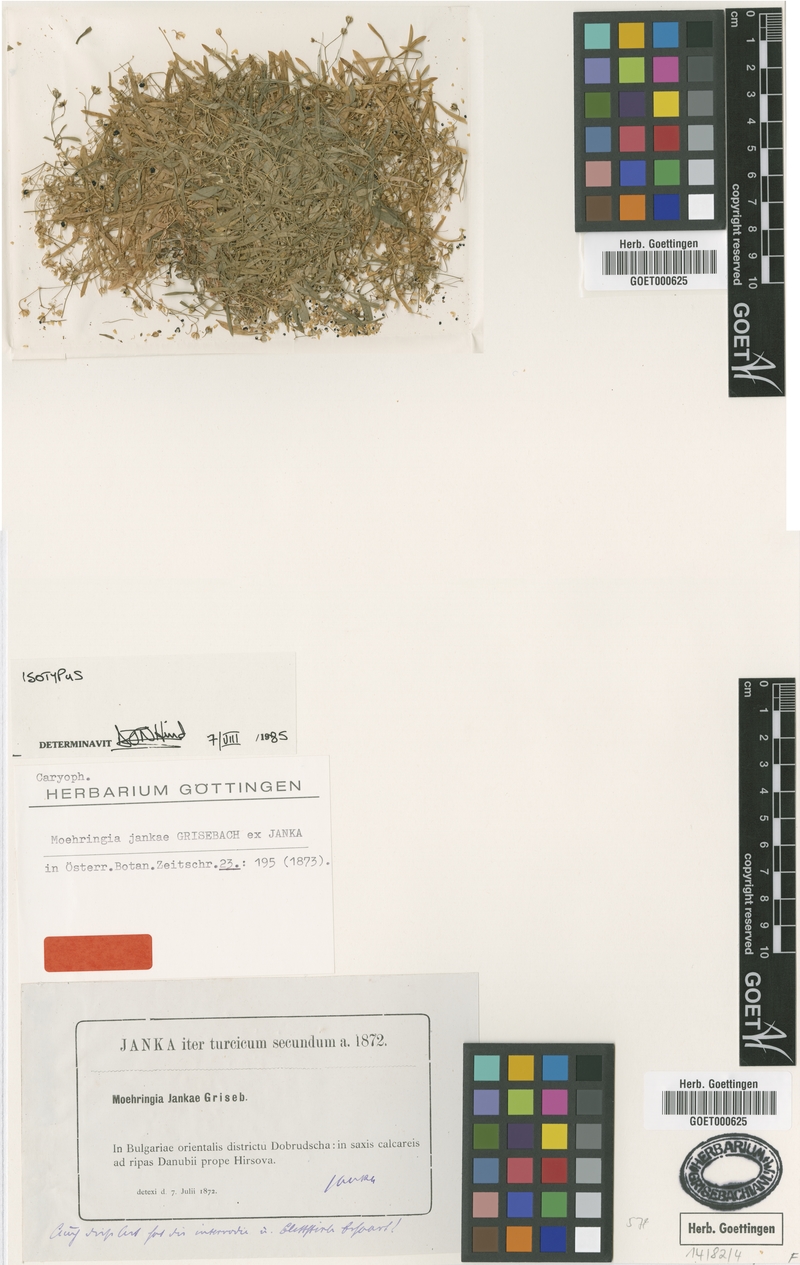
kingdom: Plantae
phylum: Tracheophyta
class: Magnoliopsida
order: Caryophyllales
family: Caryophyllaceae
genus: Moehringia
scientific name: Moehringia jankae
